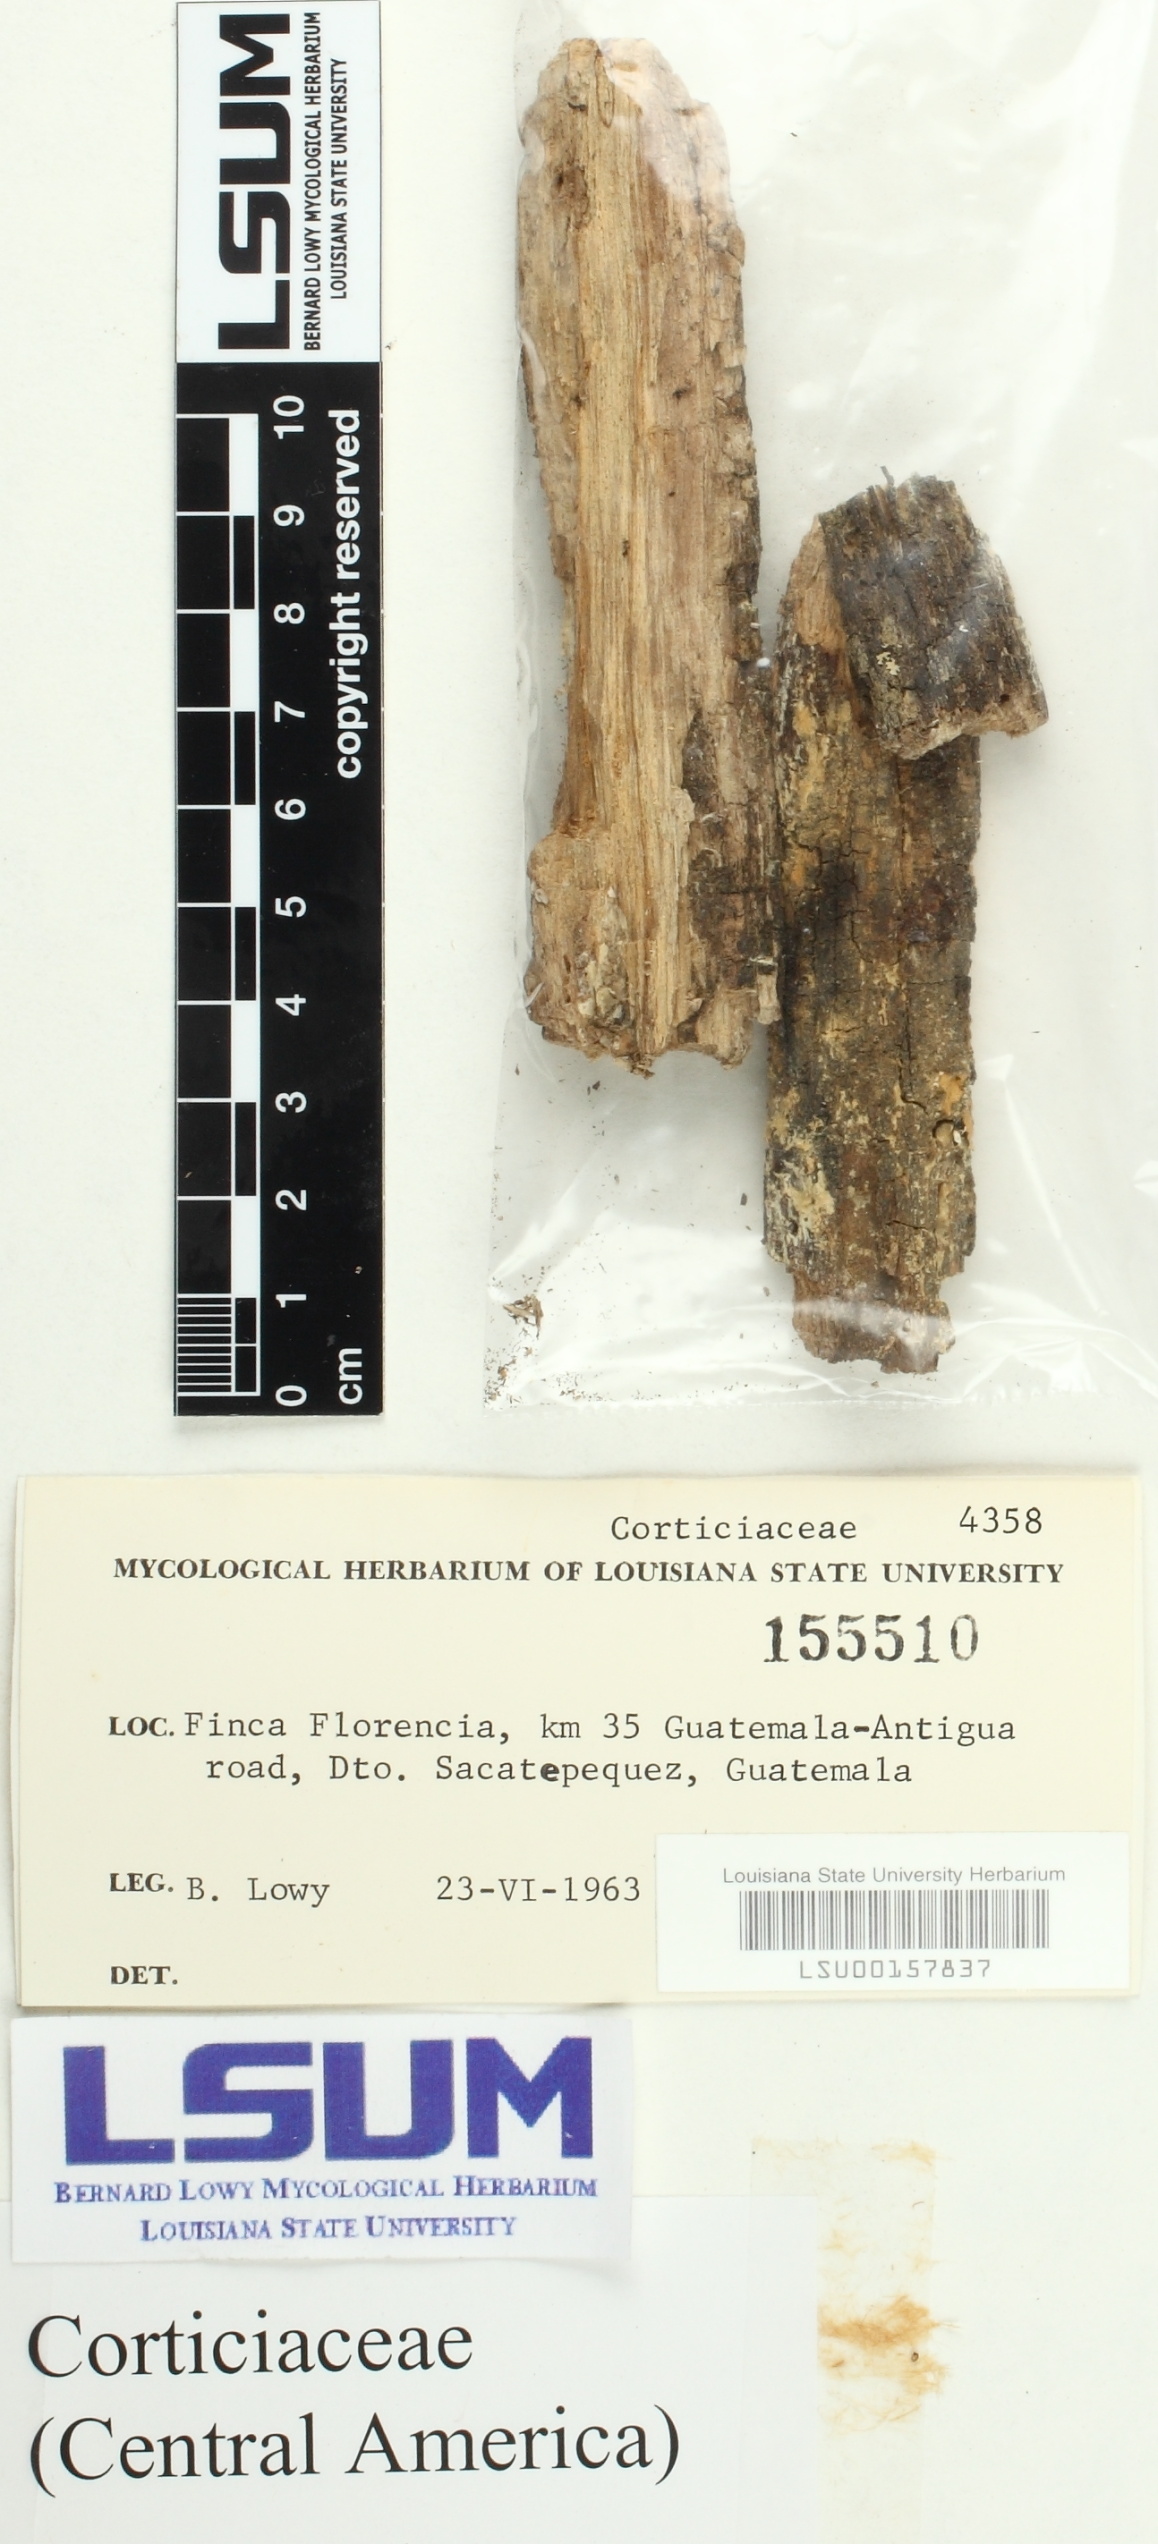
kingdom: Fungi
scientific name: Fungi
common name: Fungi
